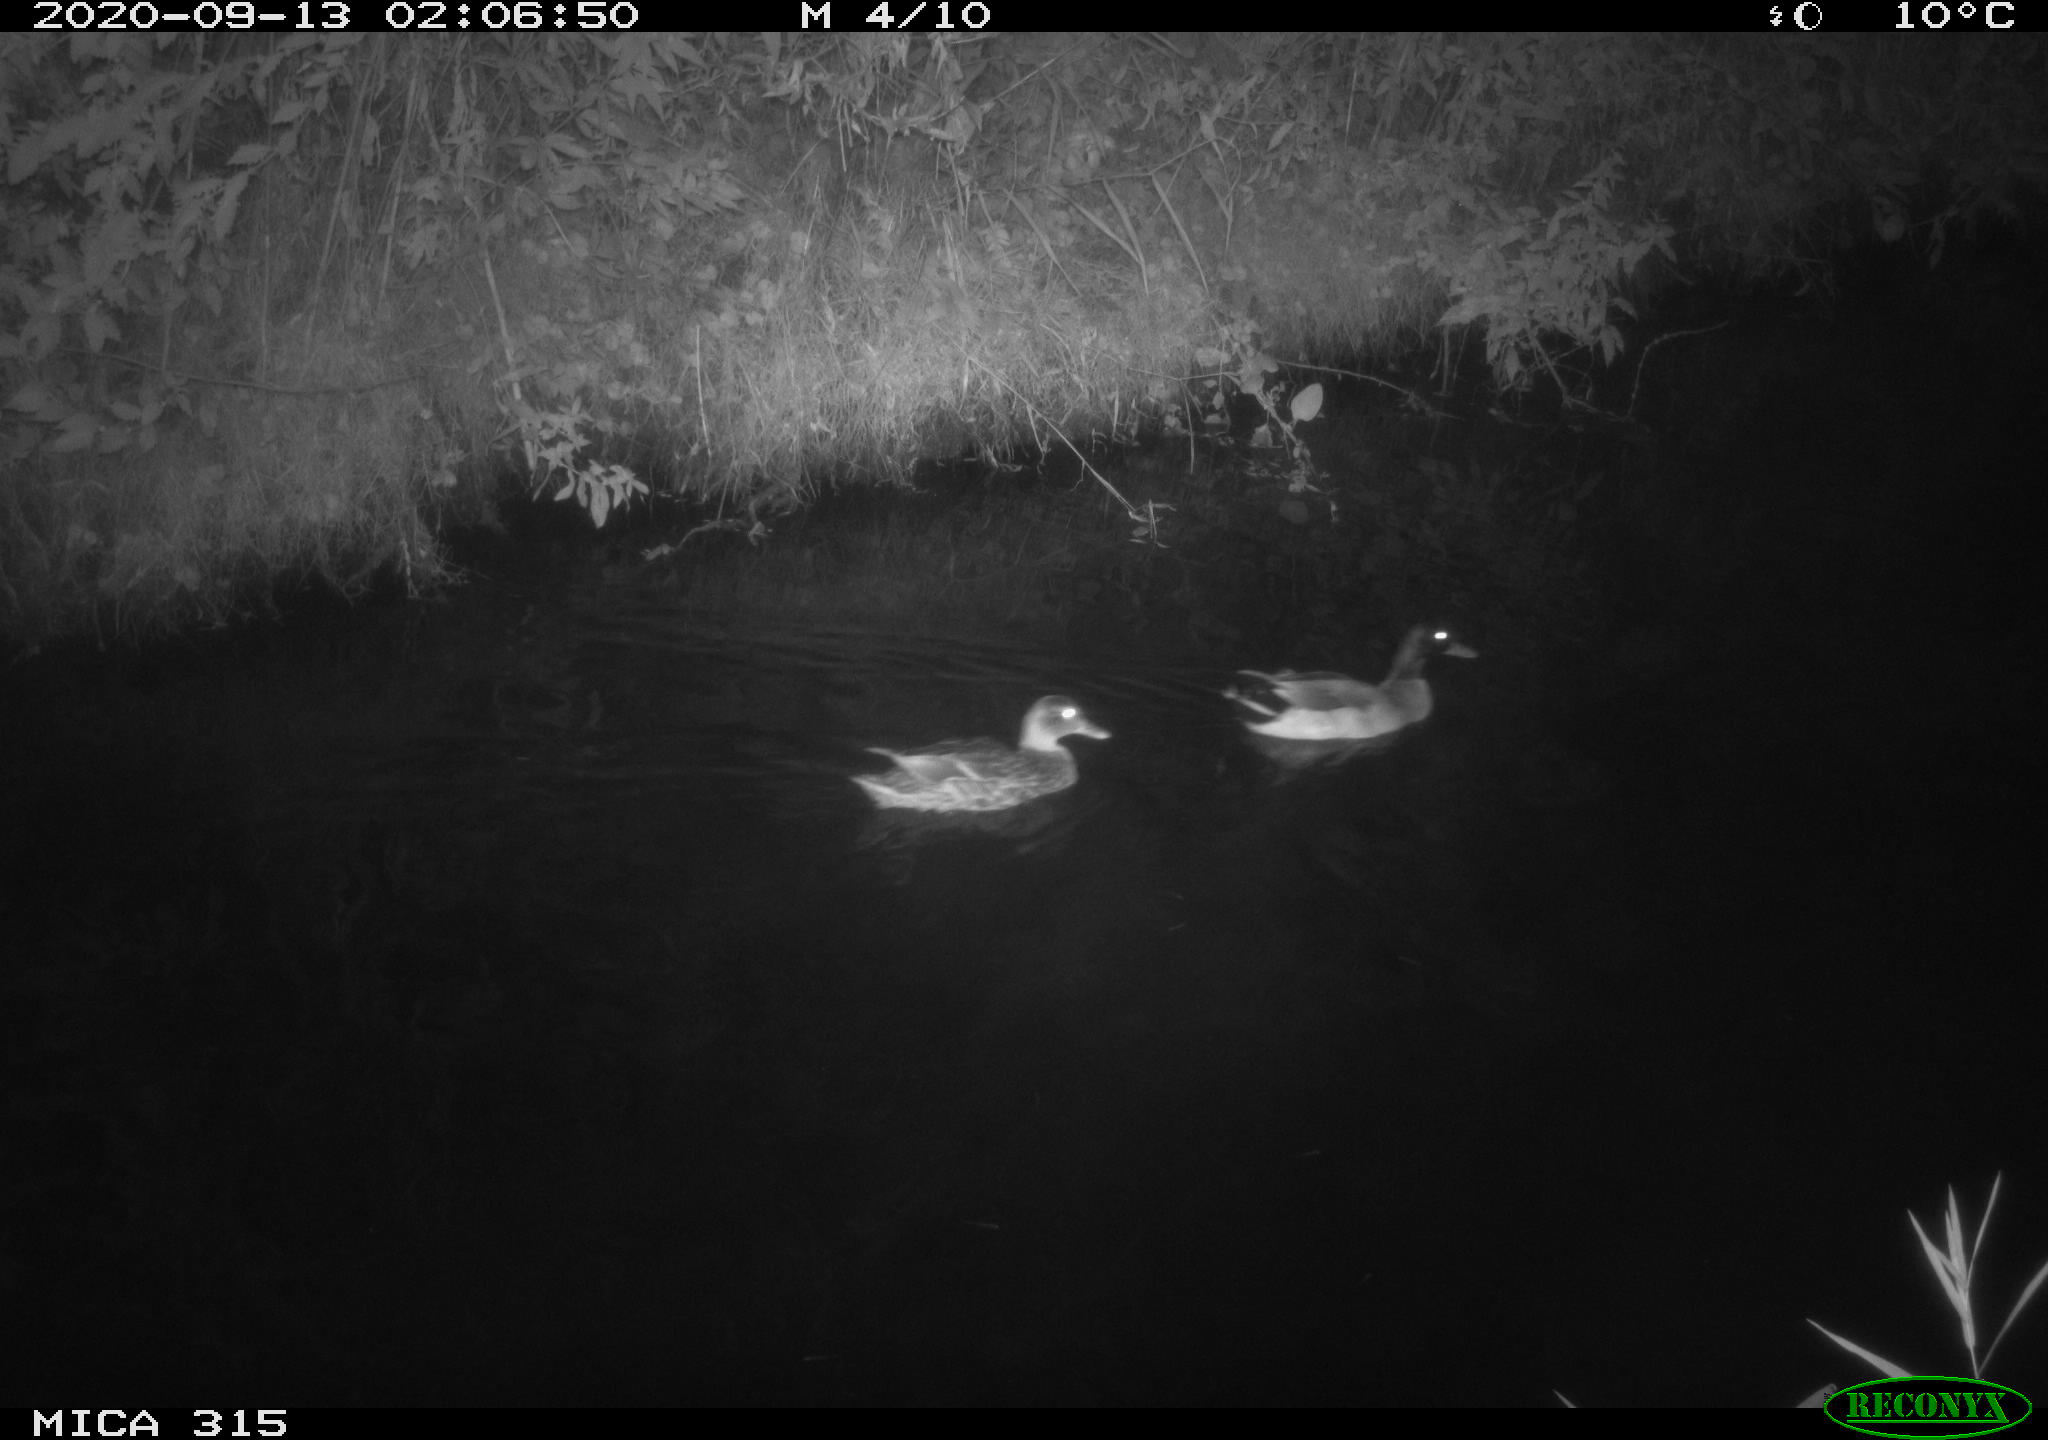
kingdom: Animalia
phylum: Chordata
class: Aves
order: Anseriformes
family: Anatidae
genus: Anas
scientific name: Anas platyrhynchos
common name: Mallard
